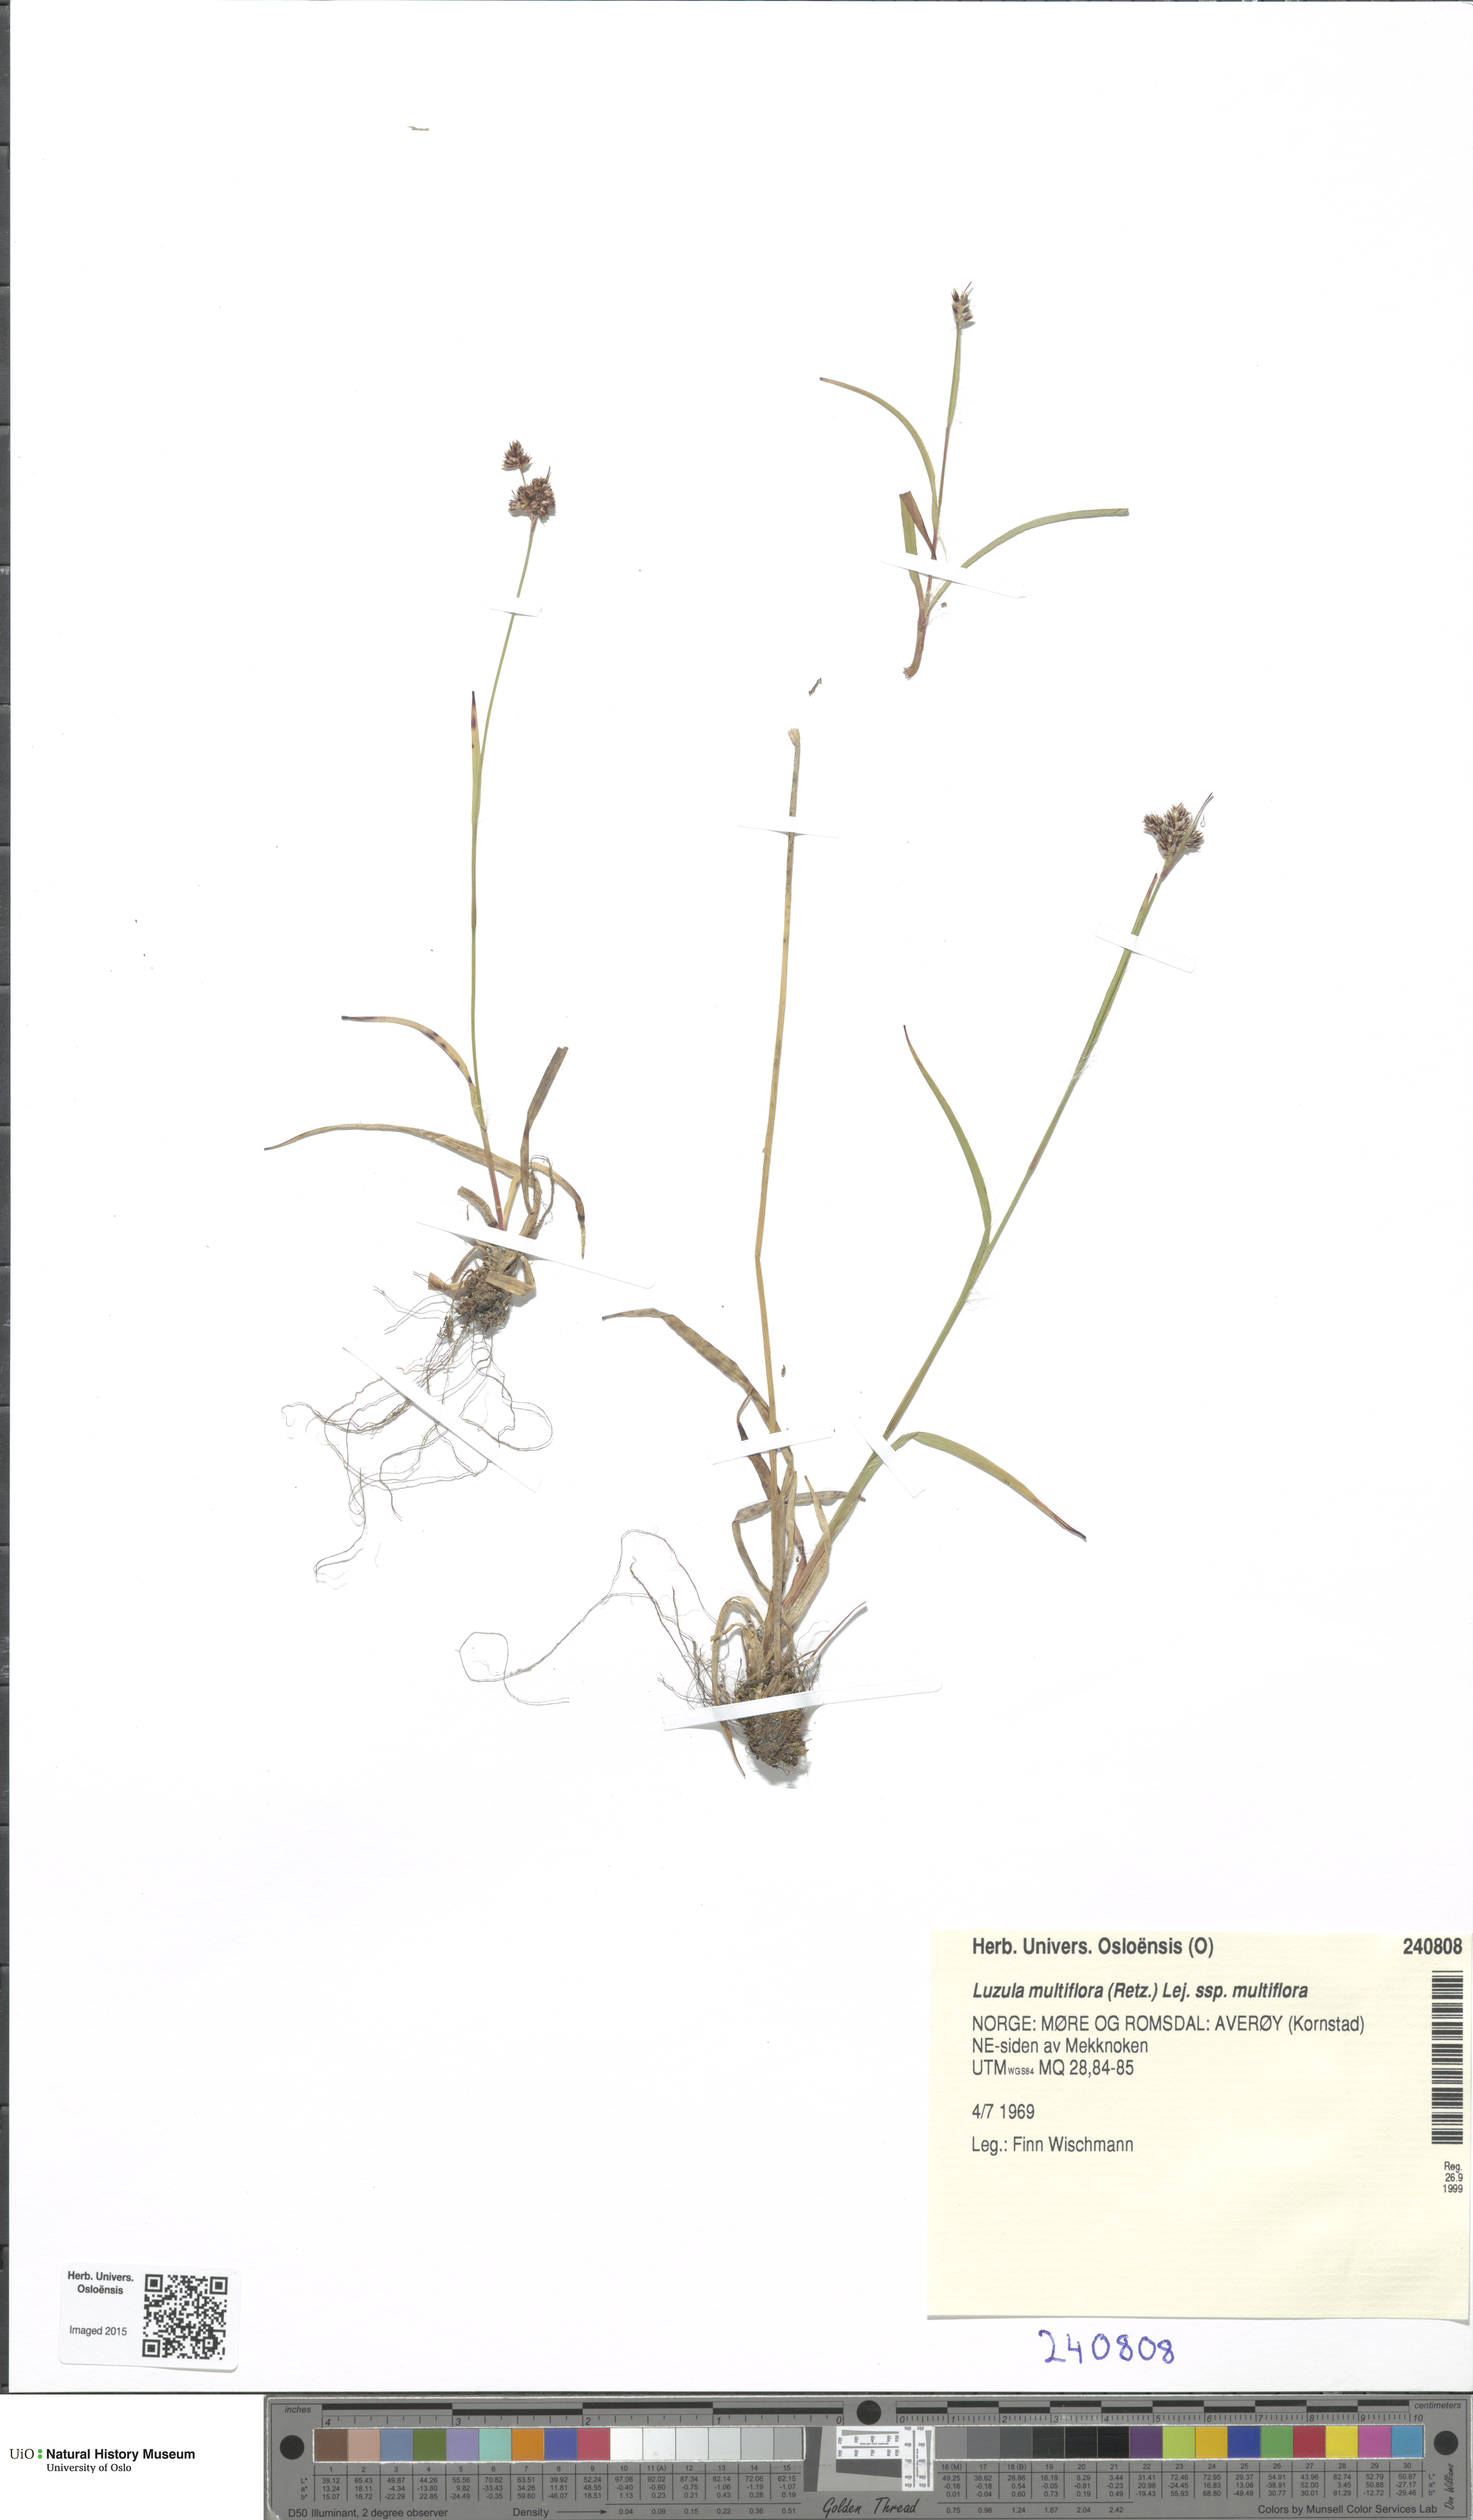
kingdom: Plantae
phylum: Tracheophyta
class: Liliopsida
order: Poales
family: Juncaceae
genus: Luzula
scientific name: Luzula multiflora
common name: Heath wood-rush
